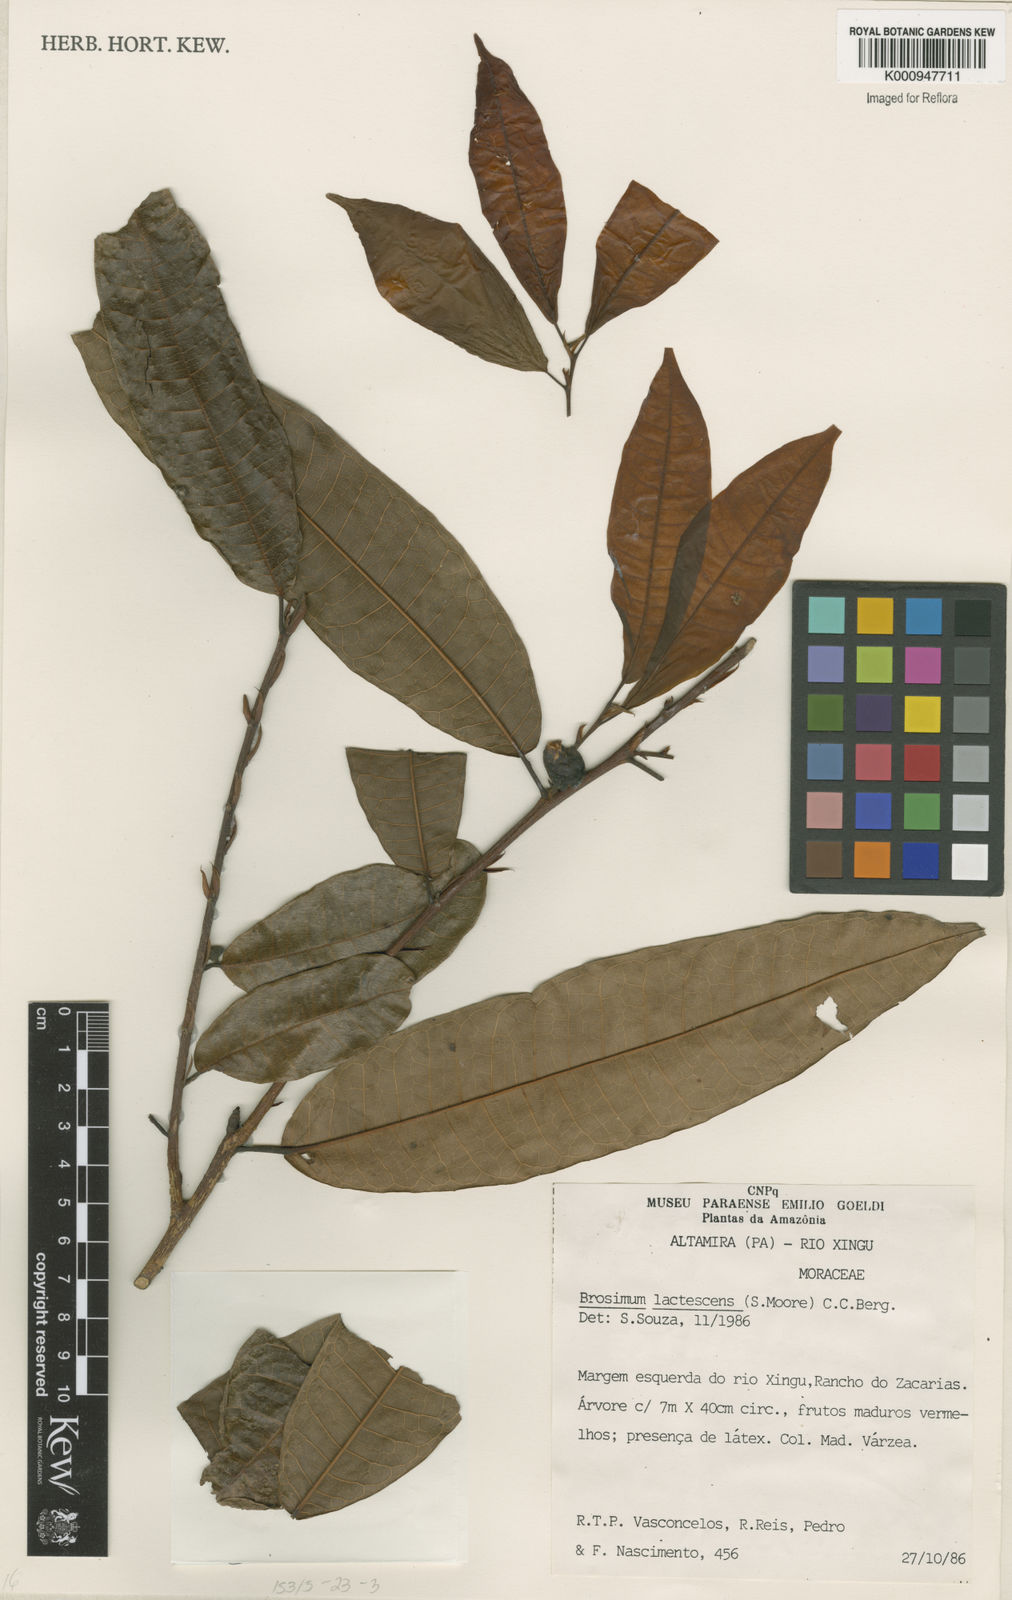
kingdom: Plantae
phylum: Tracheophyta
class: Magnoliopsida
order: Rosales
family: Moraceae
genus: Brosimum
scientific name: Brosimum lactescens
